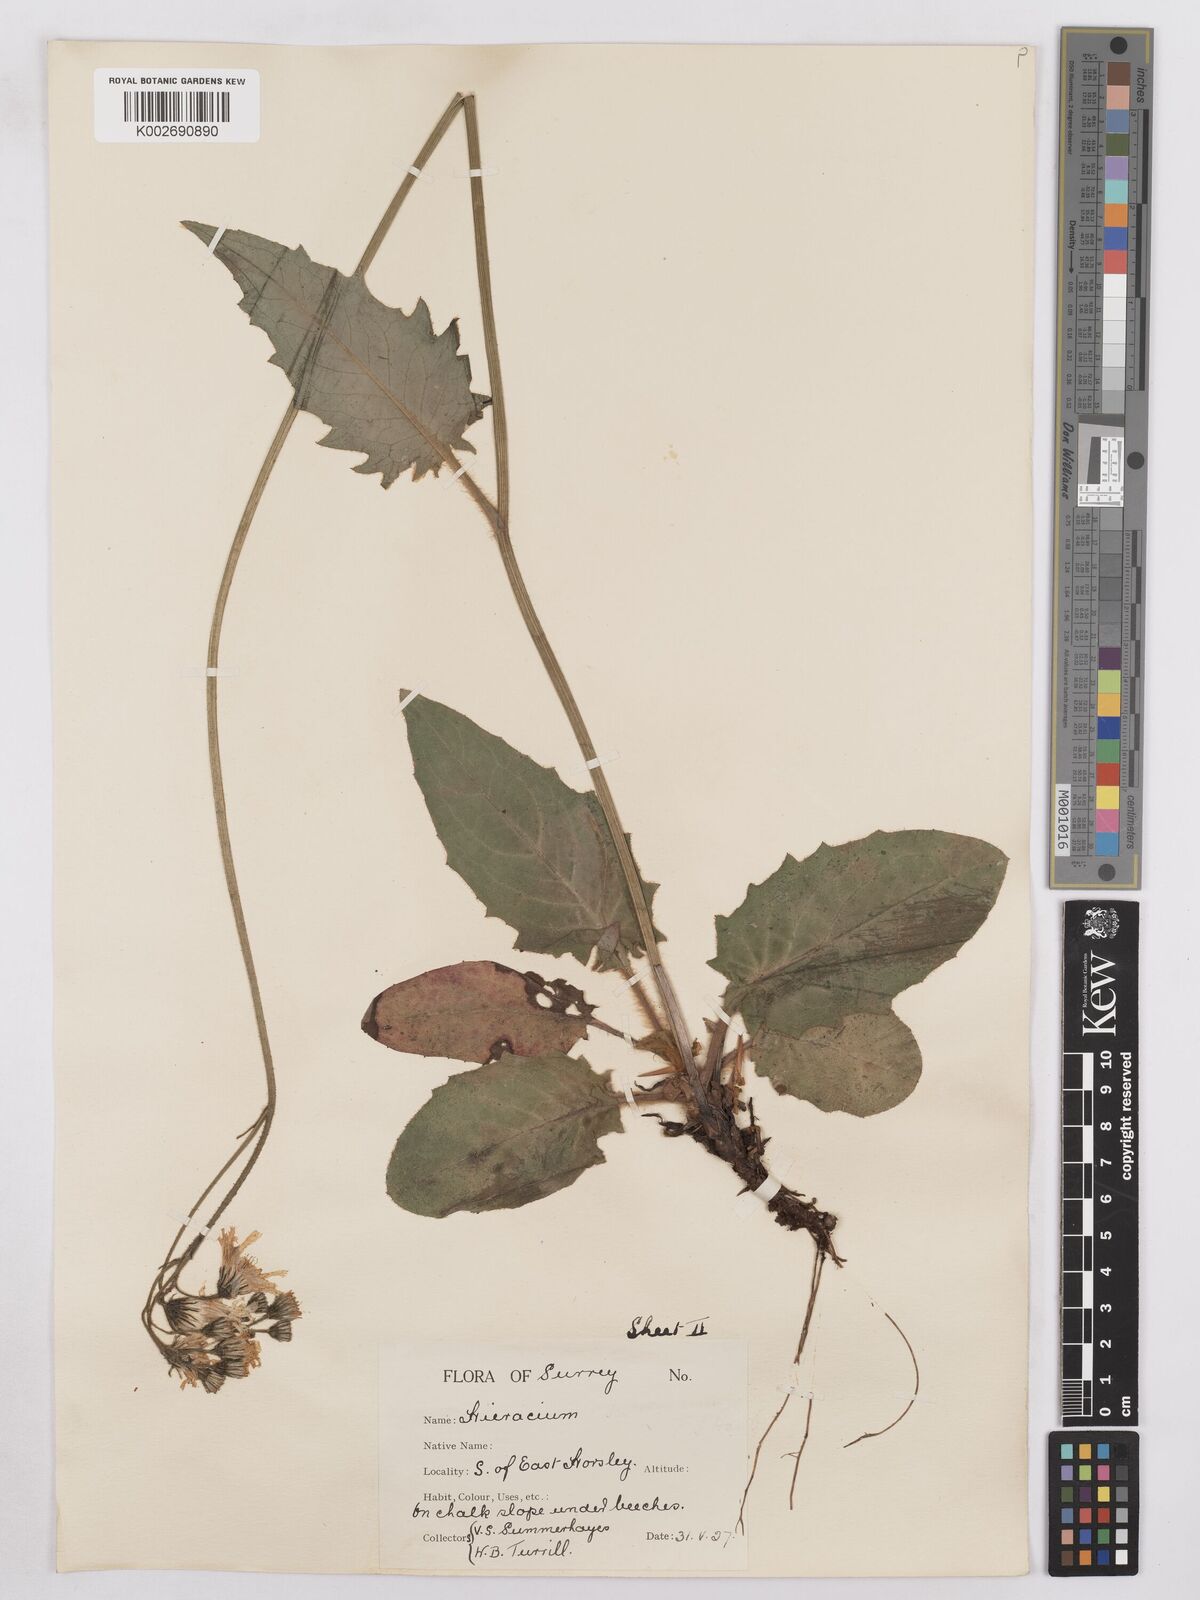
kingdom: Plantae
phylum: Tracheophyta
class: Magnoliopsida
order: Asterales
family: Asteraceae
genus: Hieracium
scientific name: Hieracium murorum
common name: Wall hawkweed
